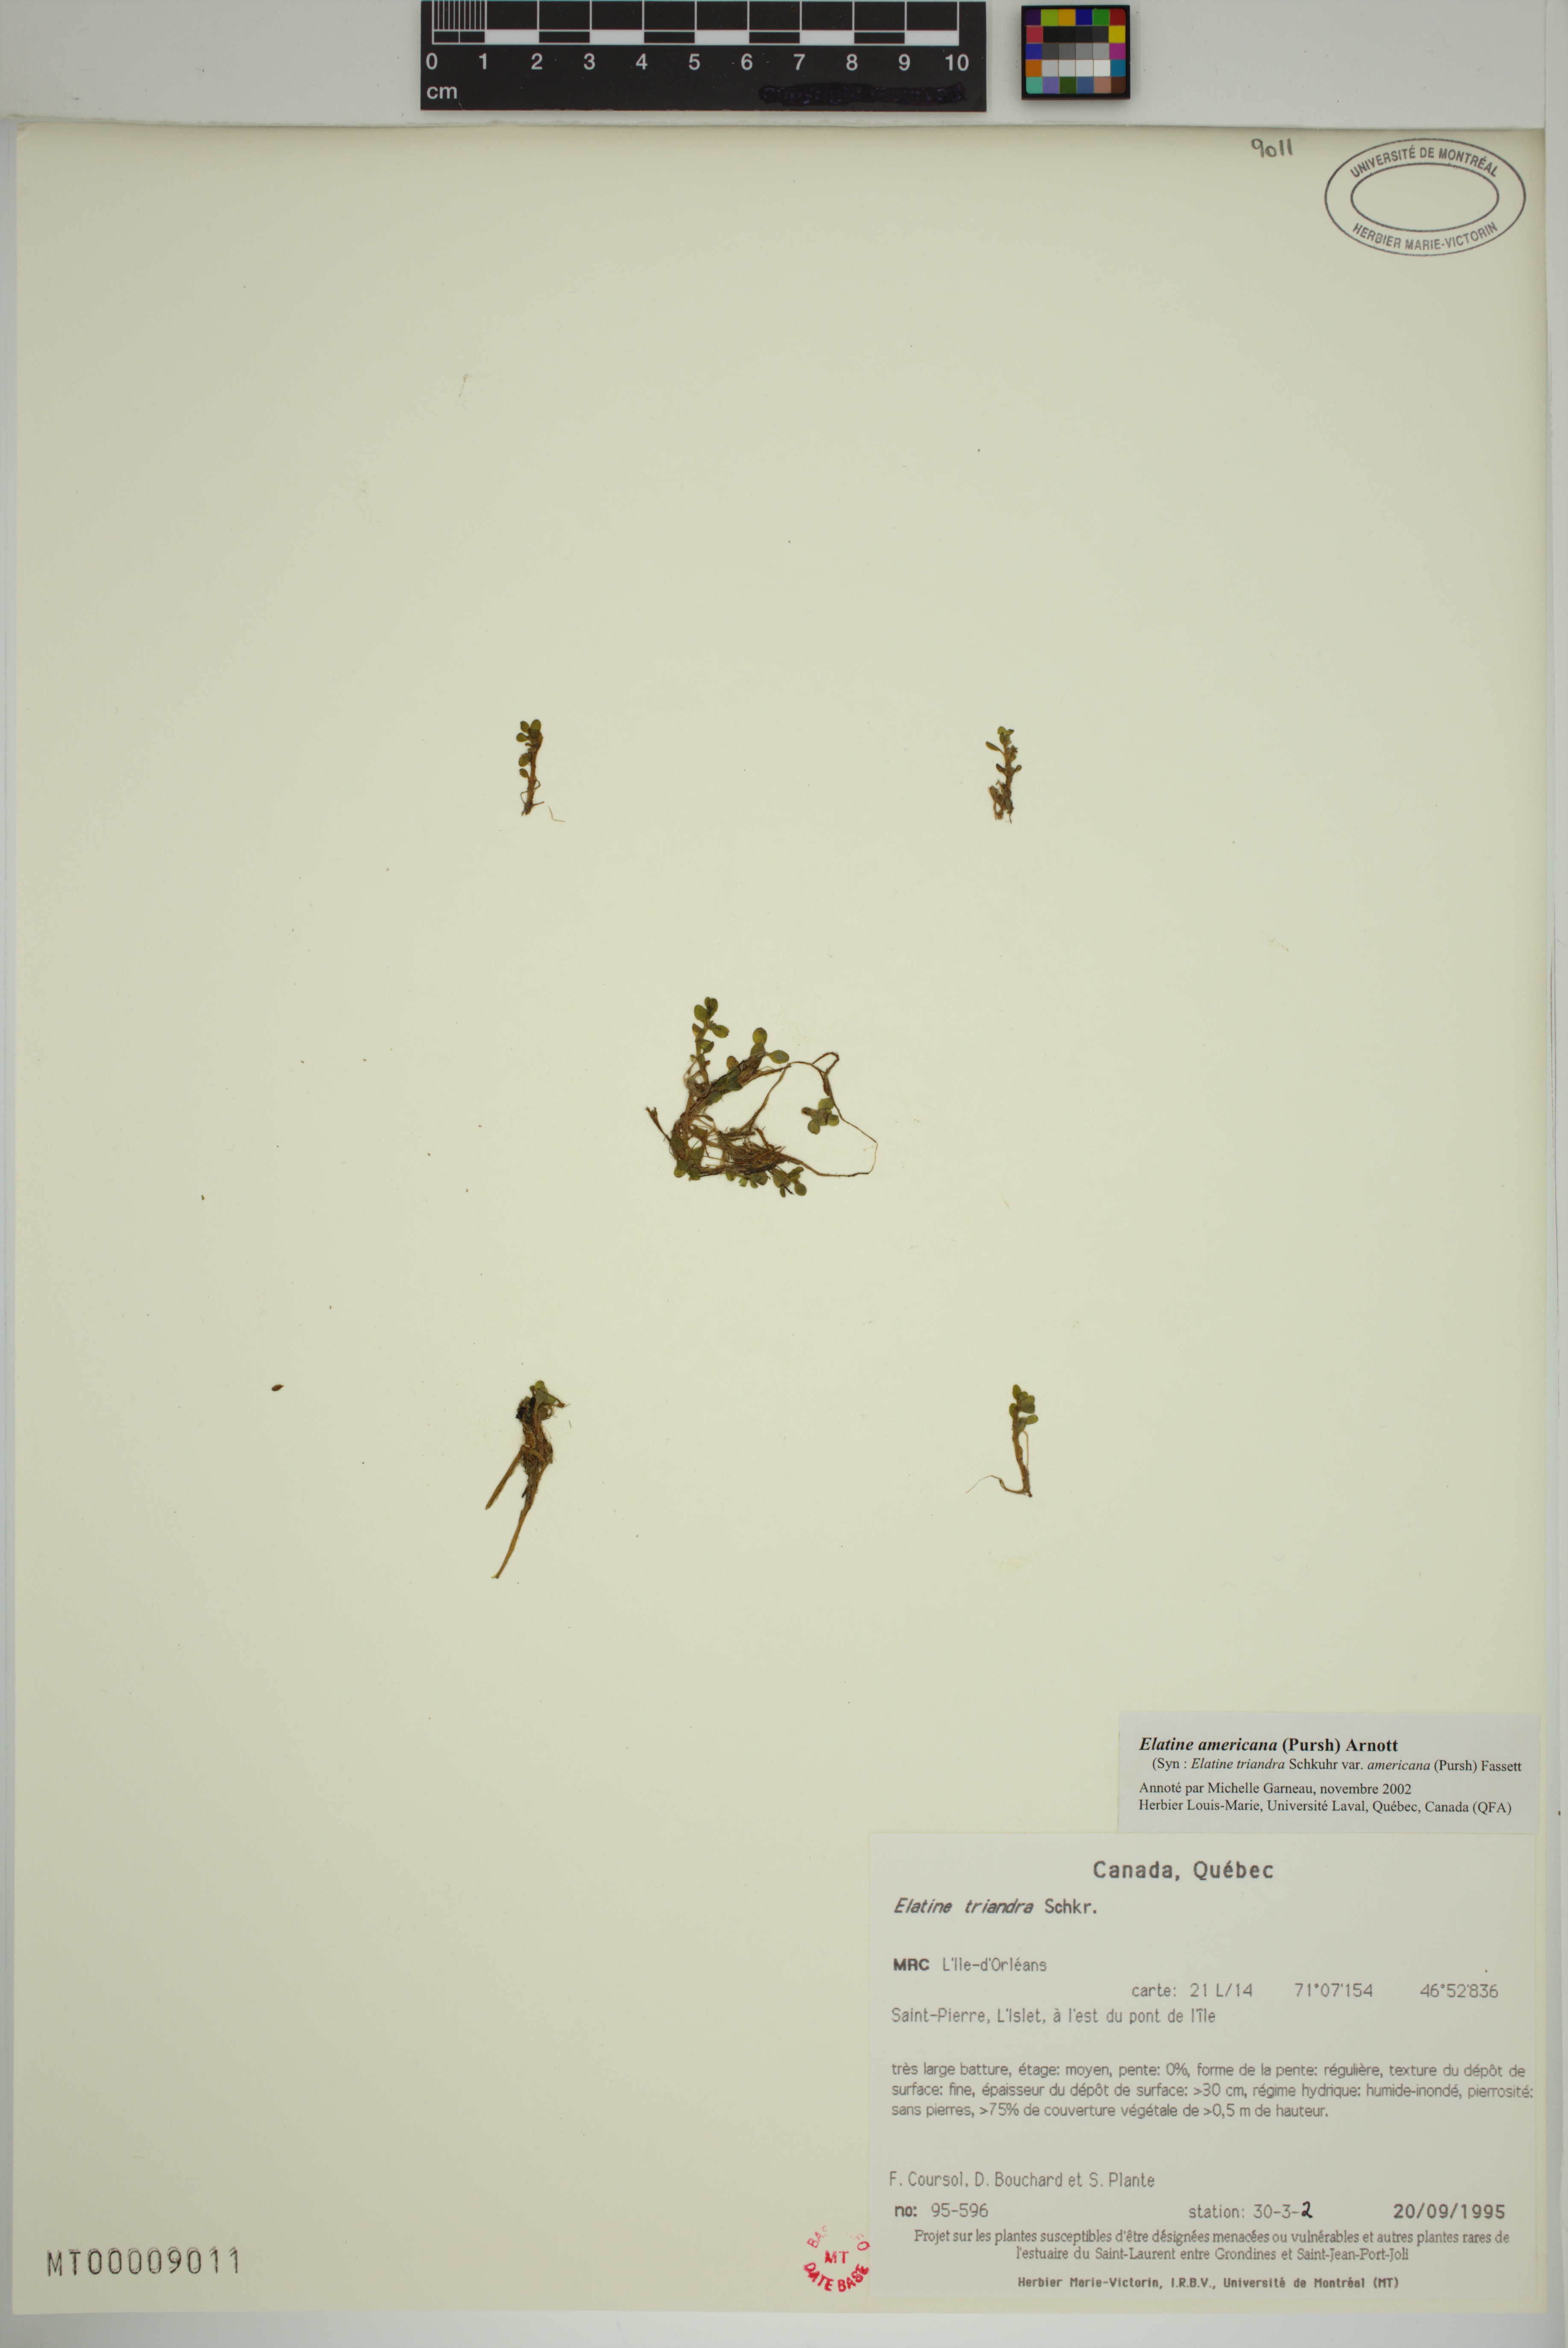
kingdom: Plantae
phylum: Tracheophyta
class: Magnoliopsida
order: Malpighiales
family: Elatinaceae
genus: Elatine
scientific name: Elatine americana
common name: American waterwort
